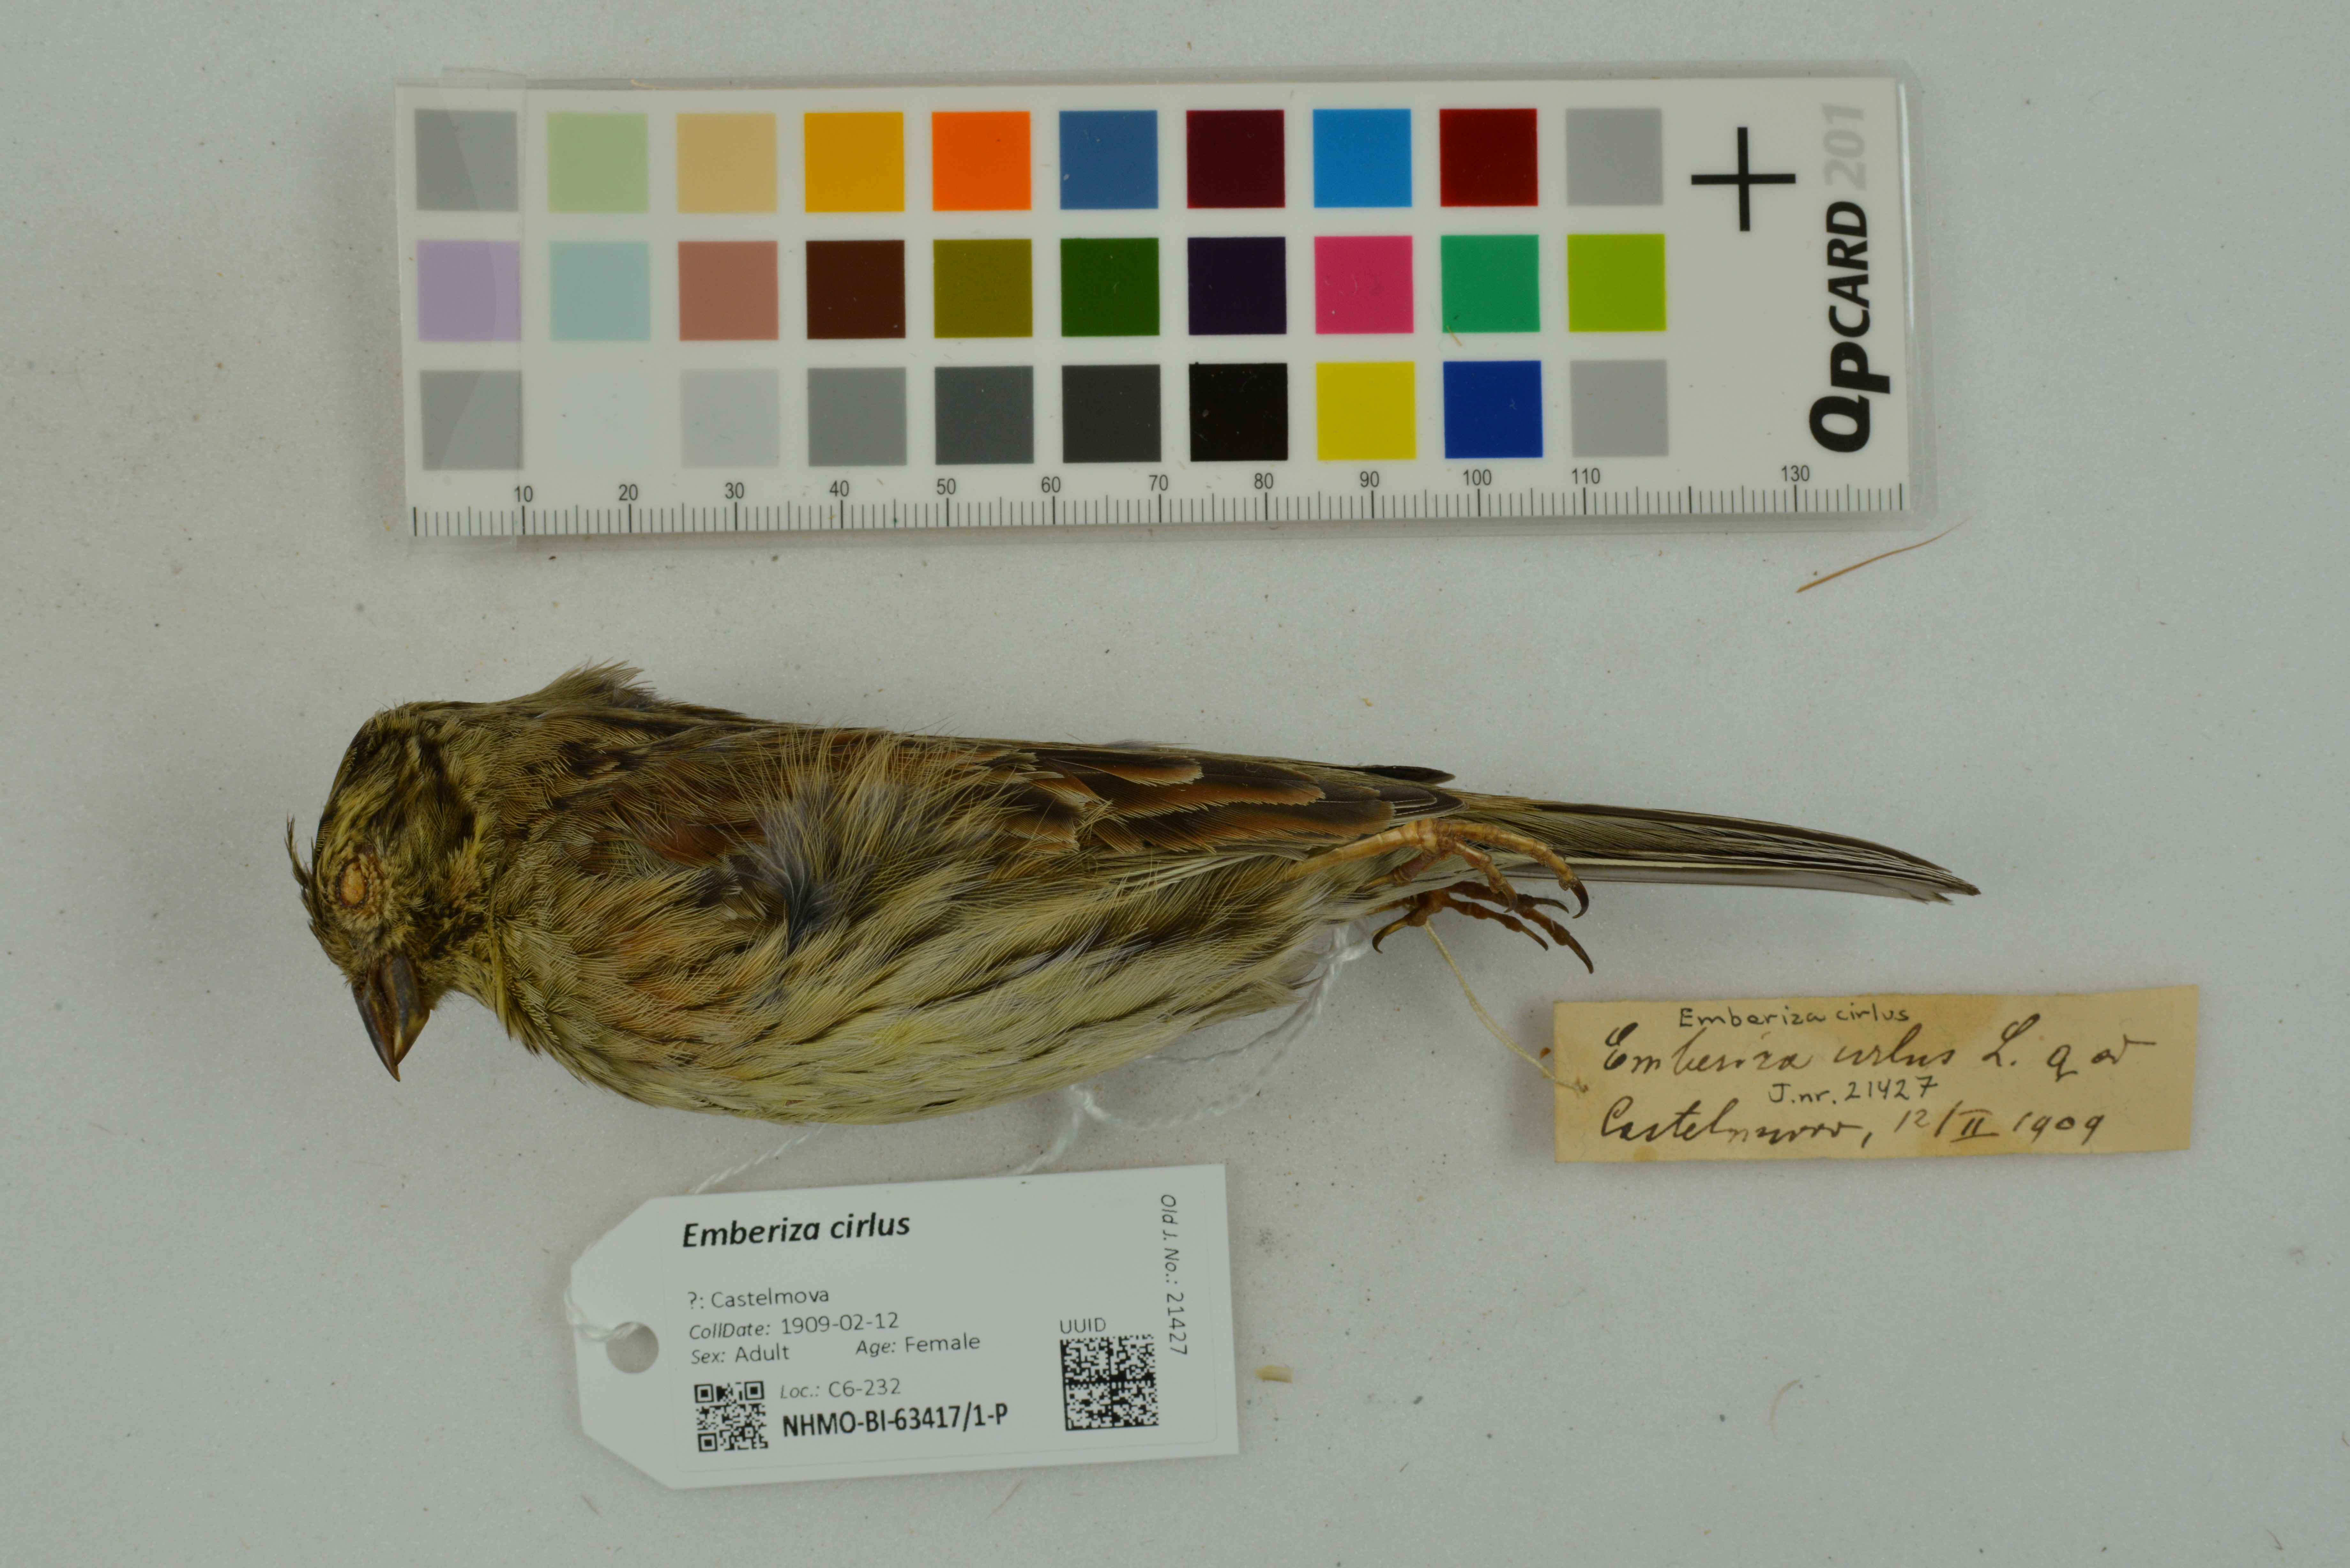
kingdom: Animalia
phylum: Chordata
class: Aves
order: Passeriformes
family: Emberizidae
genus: Emberiza
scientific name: Emberiza cirlus
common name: Cirl bunting
